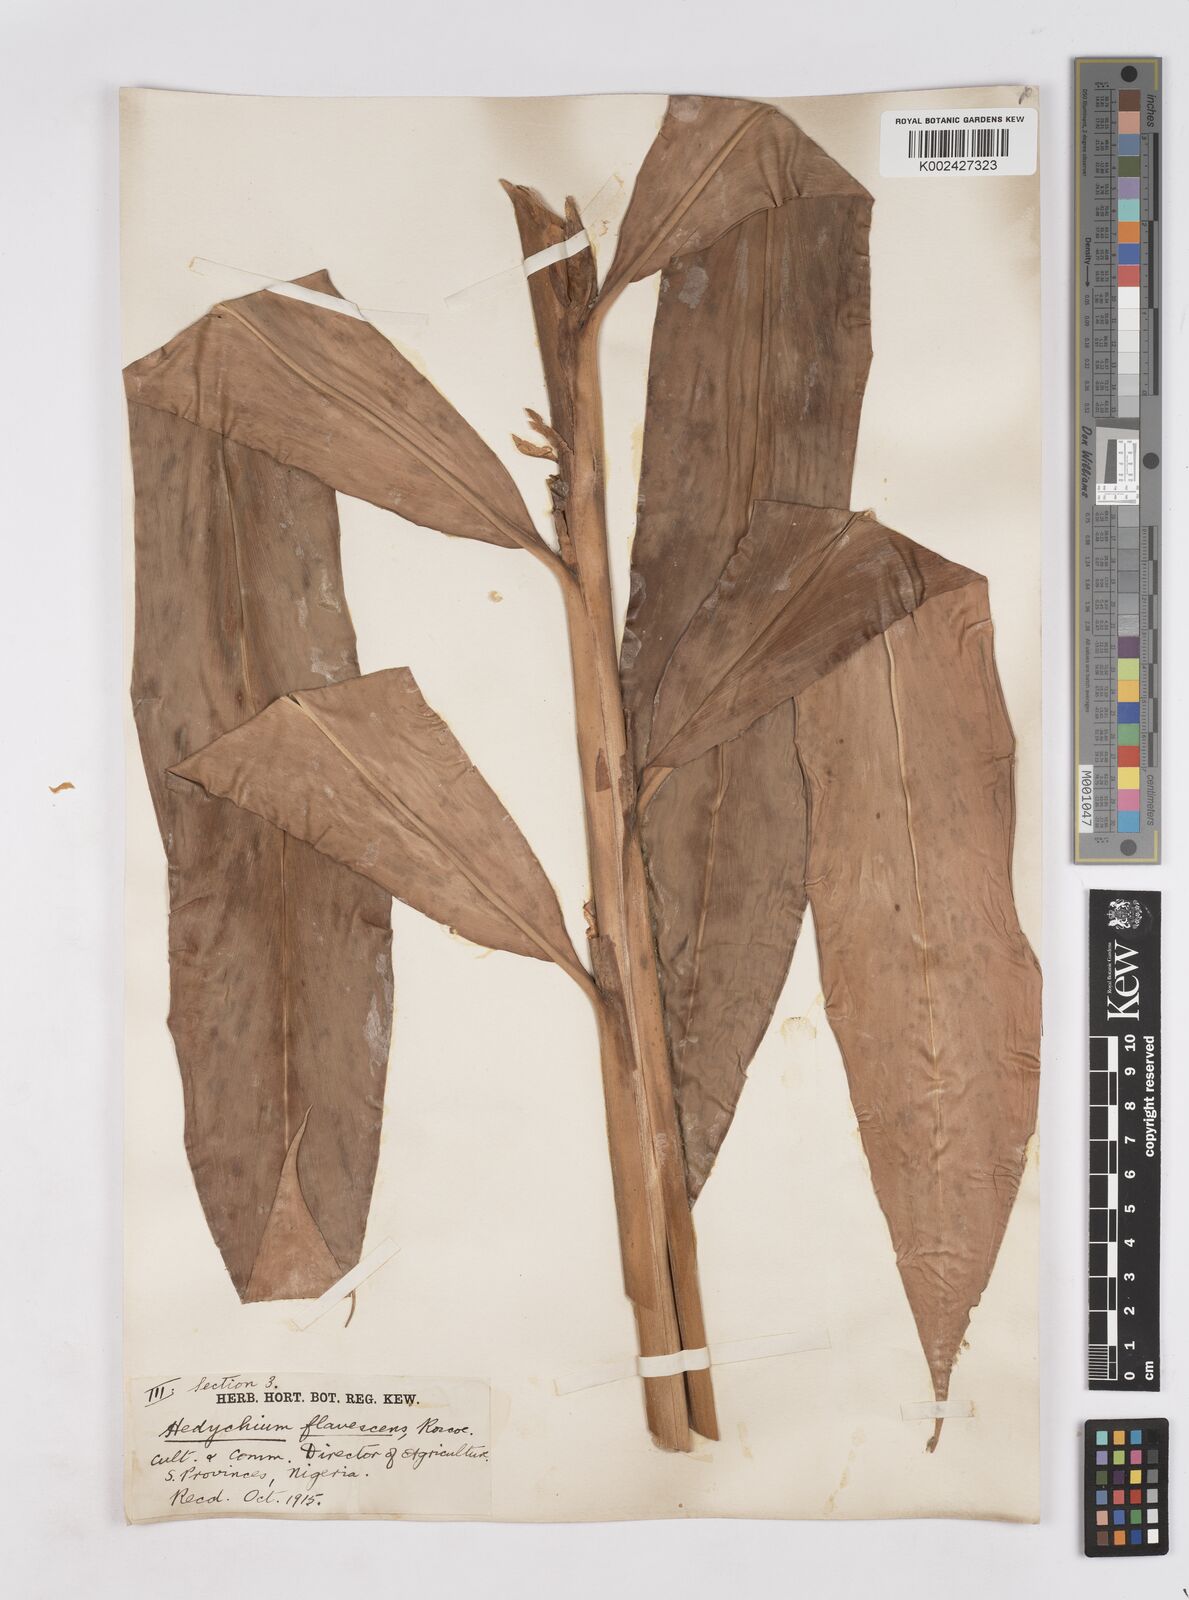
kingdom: Plantae
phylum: Tracheophyta
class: Liliopsida
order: Zingiberales
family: Zingiberaceae
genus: Hedychium
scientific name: Hedychium flavescens
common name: Yellow ginger
